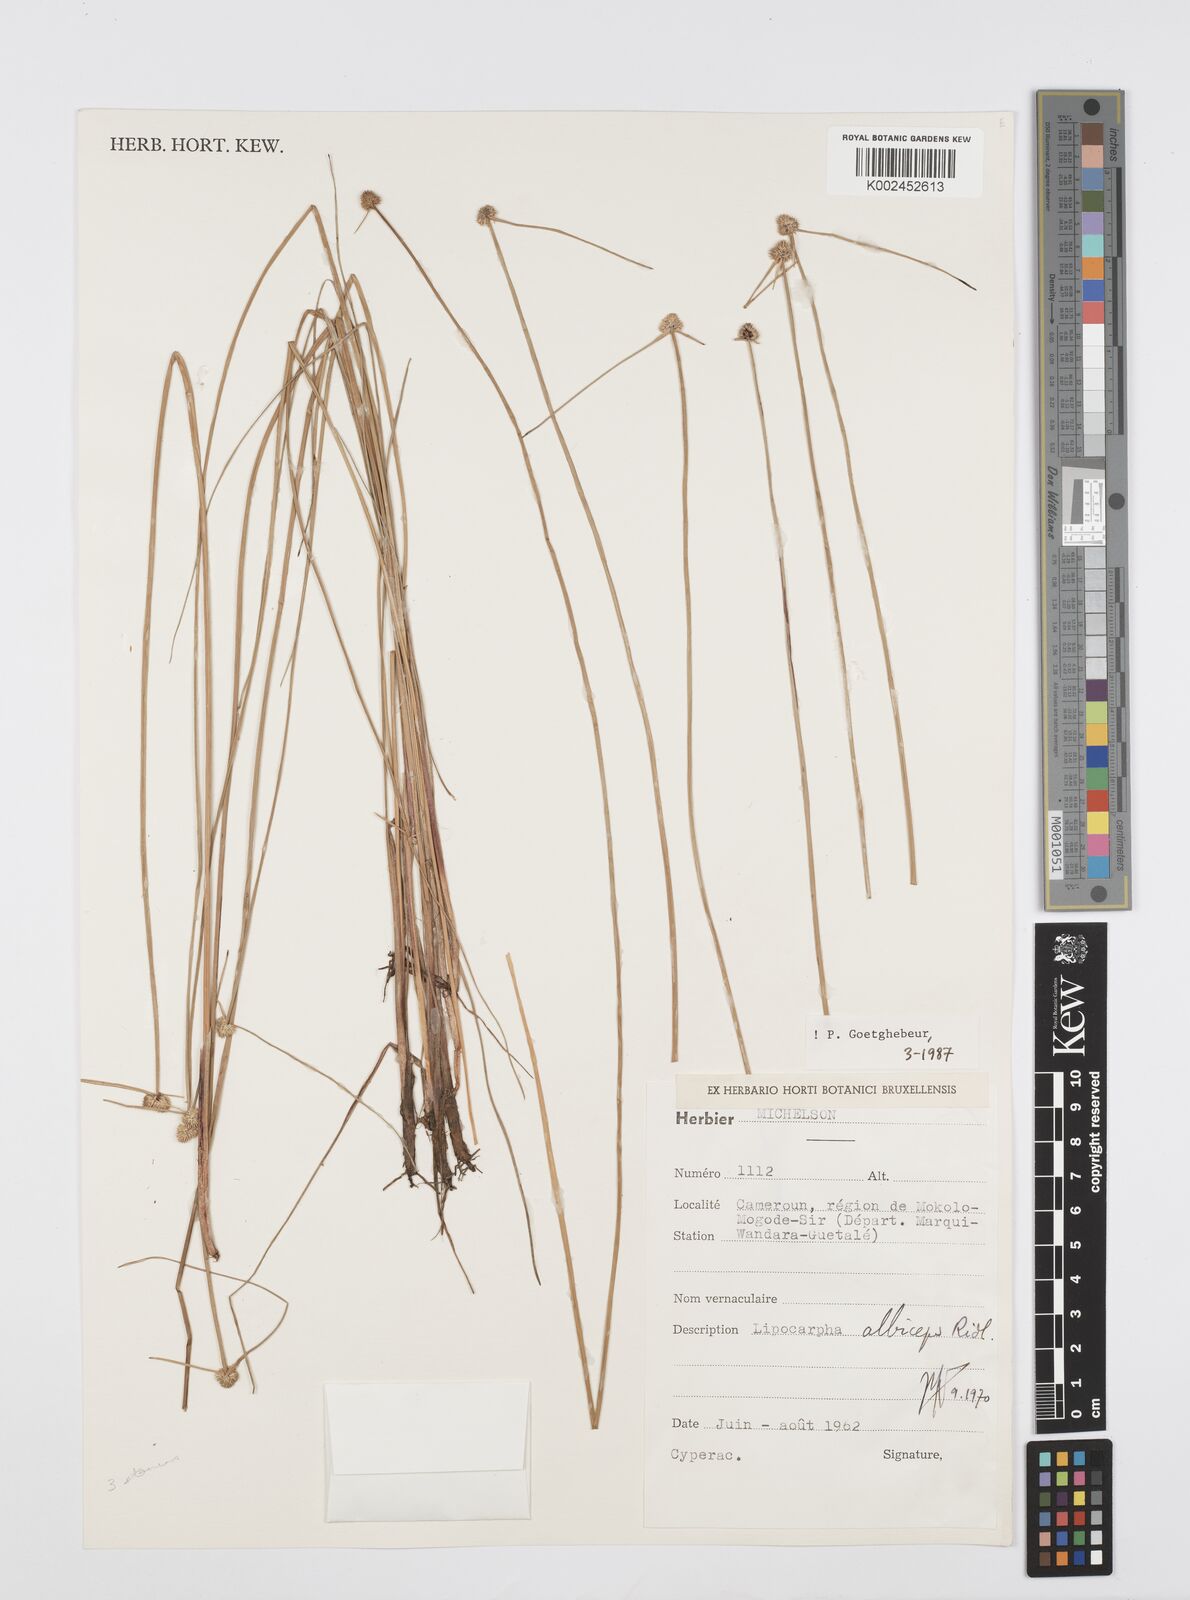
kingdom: Plantae
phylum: Tracheophyta
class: Liliopsida
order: Poales
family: Cyperaceae
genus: Cyperus
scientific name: Cyperus albiceps
